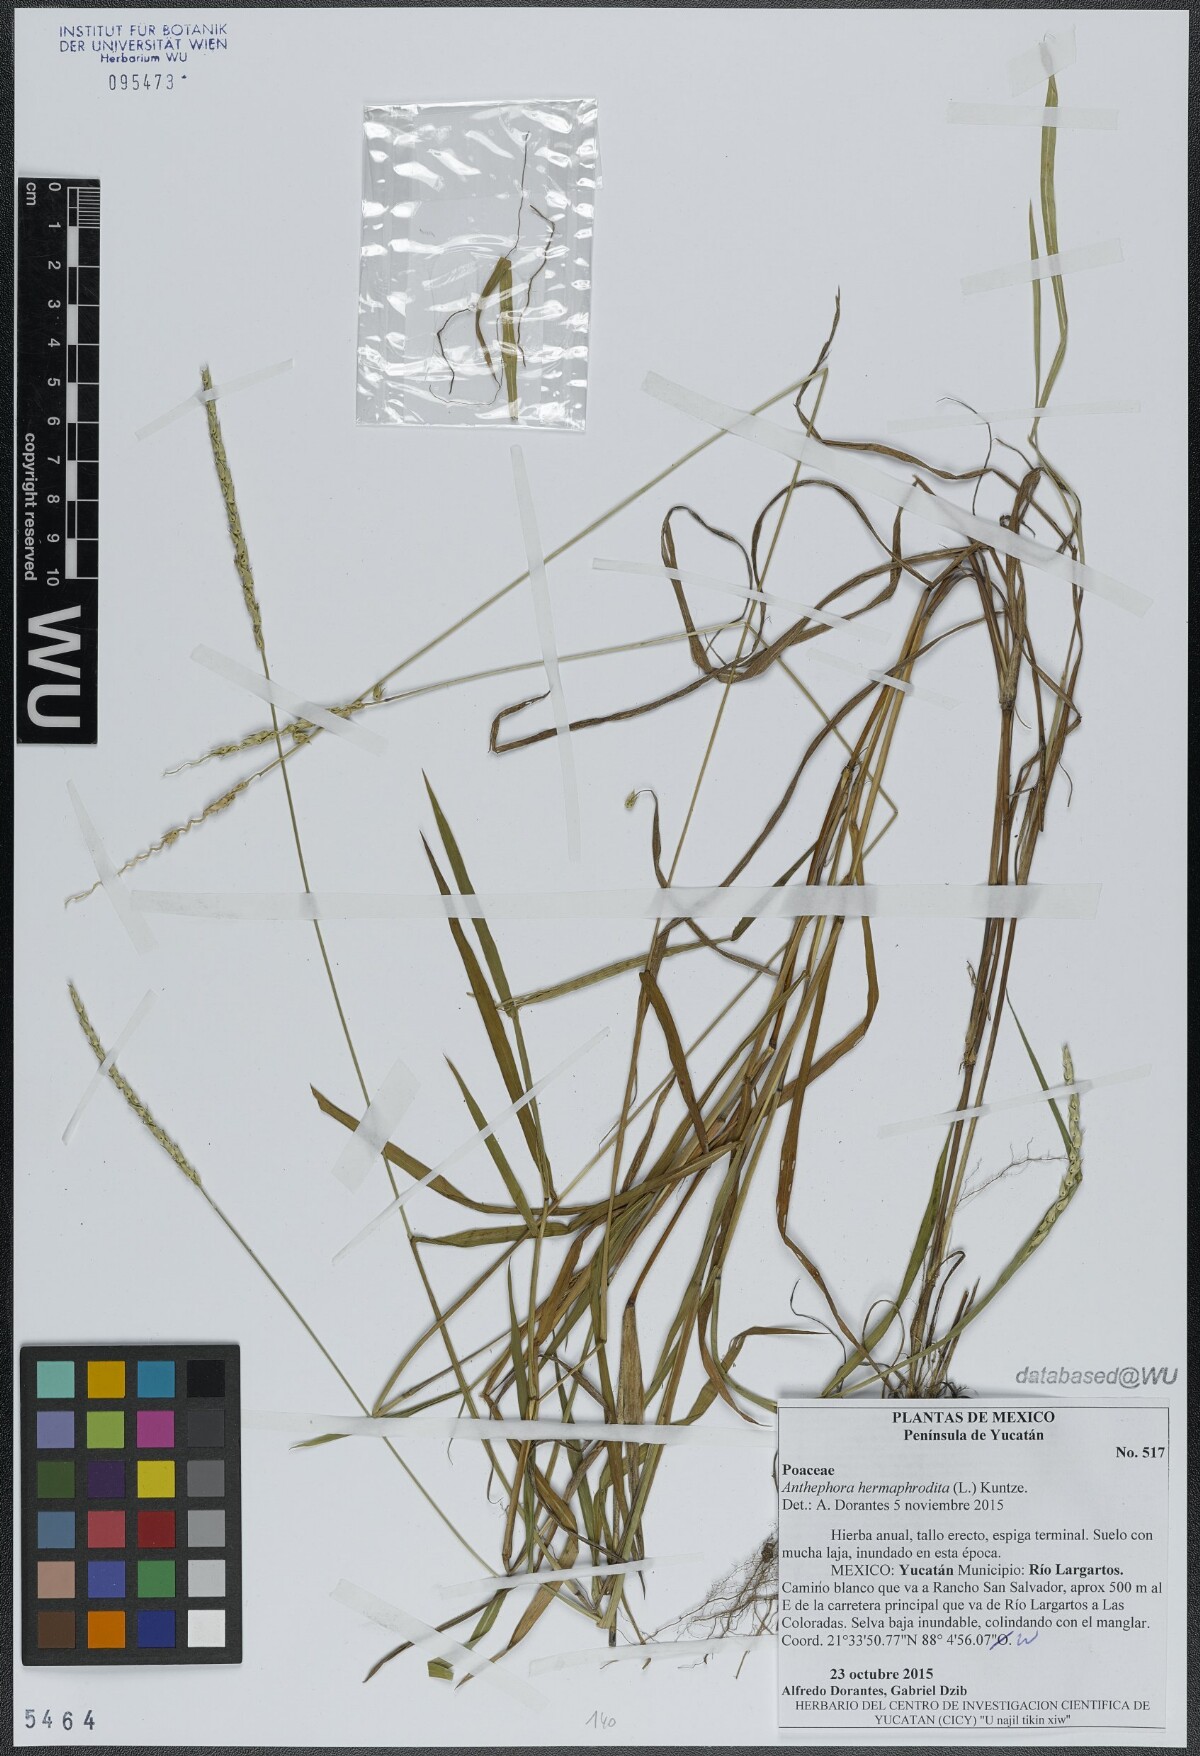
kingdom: Plantae
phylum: Tracheophyta
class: Liliopsida
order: Poales
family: Poaceae
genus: Anthephora
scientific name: Anthephora hermaphrodita
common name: Oldfield grass
